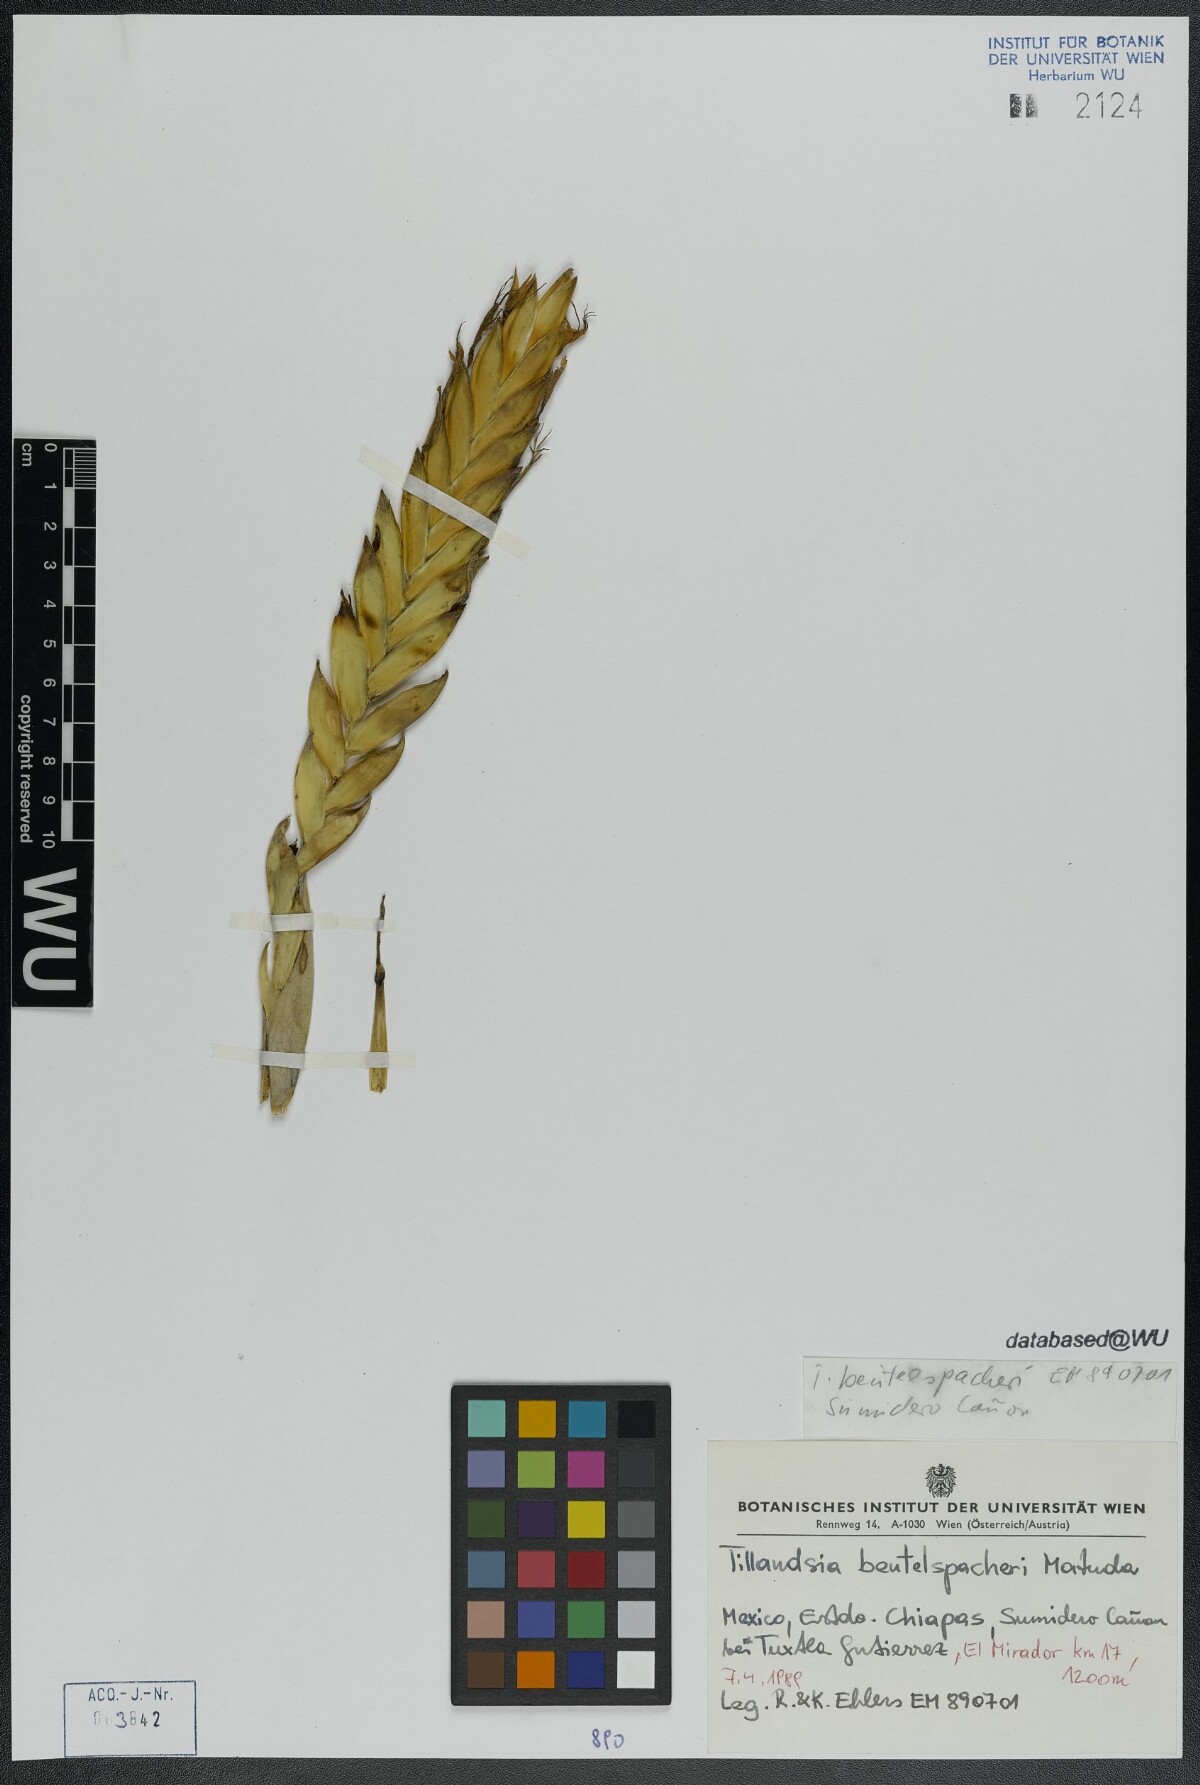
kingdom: Plantae
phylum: Tracheophyta
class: Liliopsida
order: Poales
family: Bromeliaceae
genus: Tillandsia
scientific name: Tillandsia fasciculata
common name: Giant airplant
